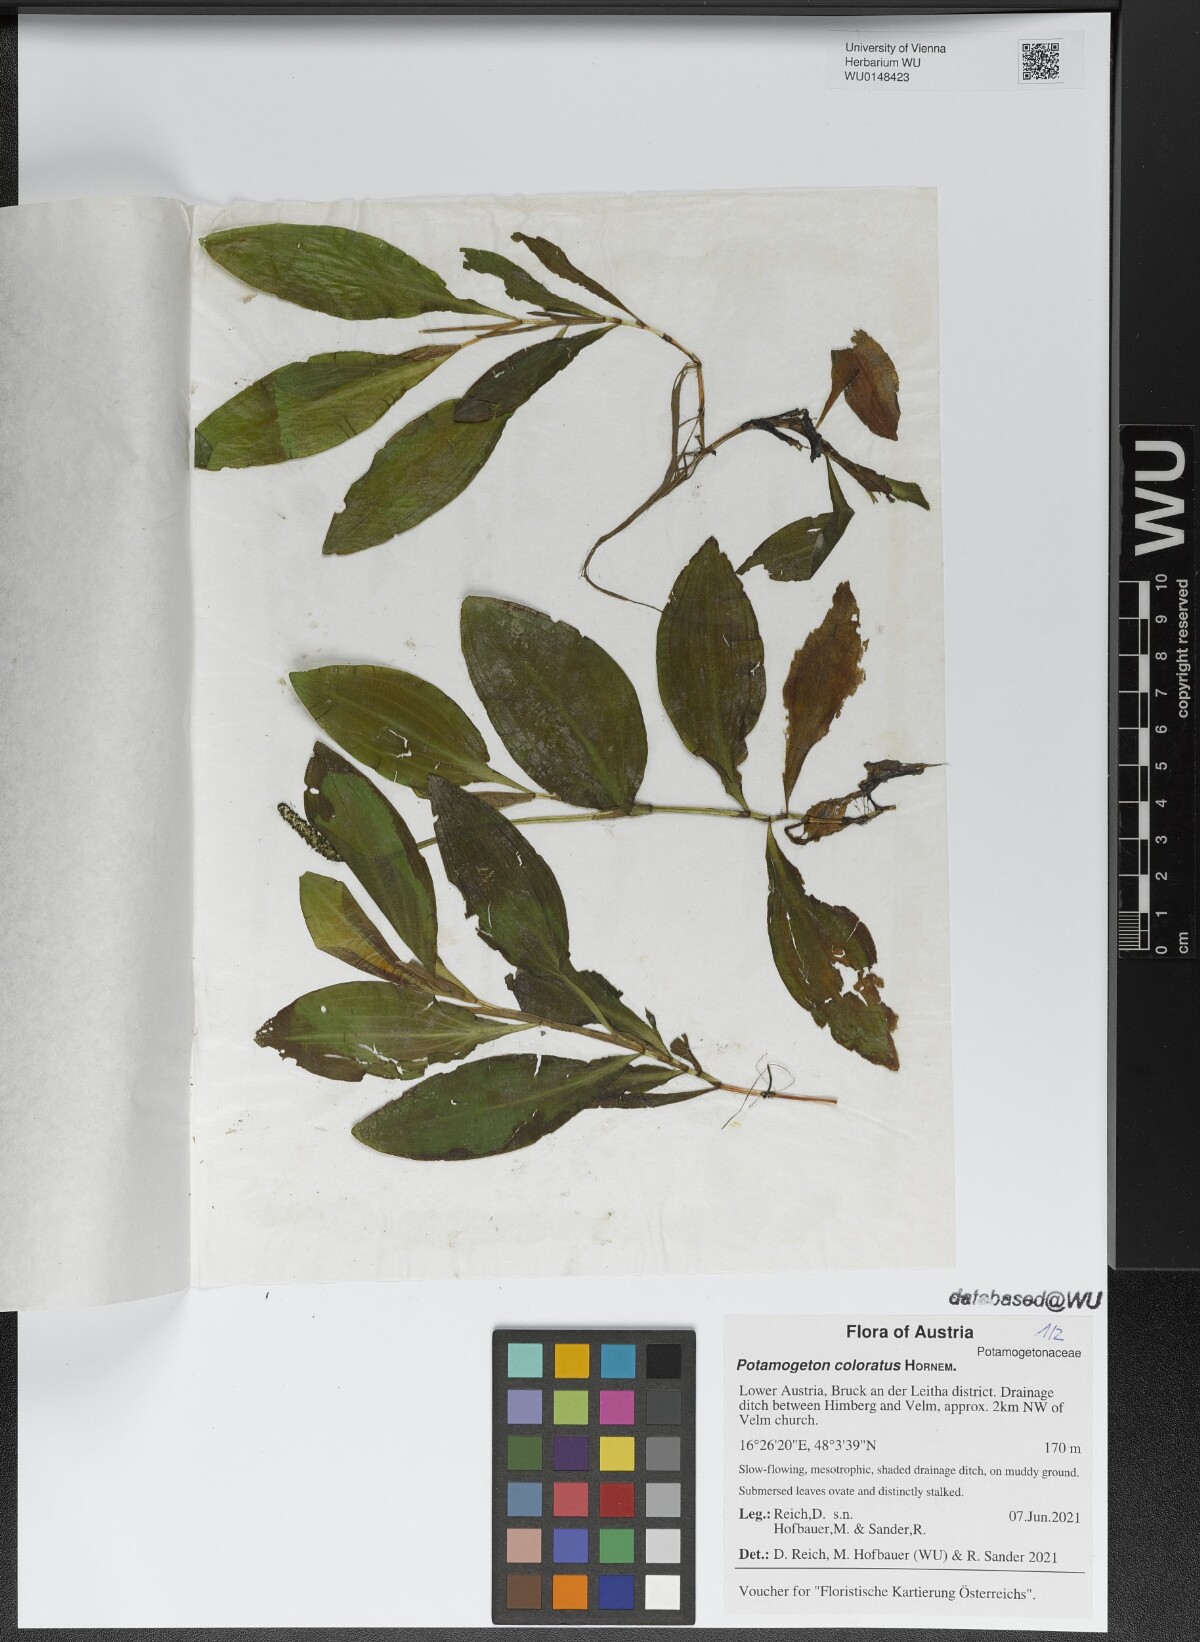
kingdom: Plantae
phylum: Tracheophyta
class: Liliopsida
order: Alismatales
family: Potamogetonaceae
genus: Potamogeton
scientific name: Potamogeton coloratus
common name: Fen pondweed
